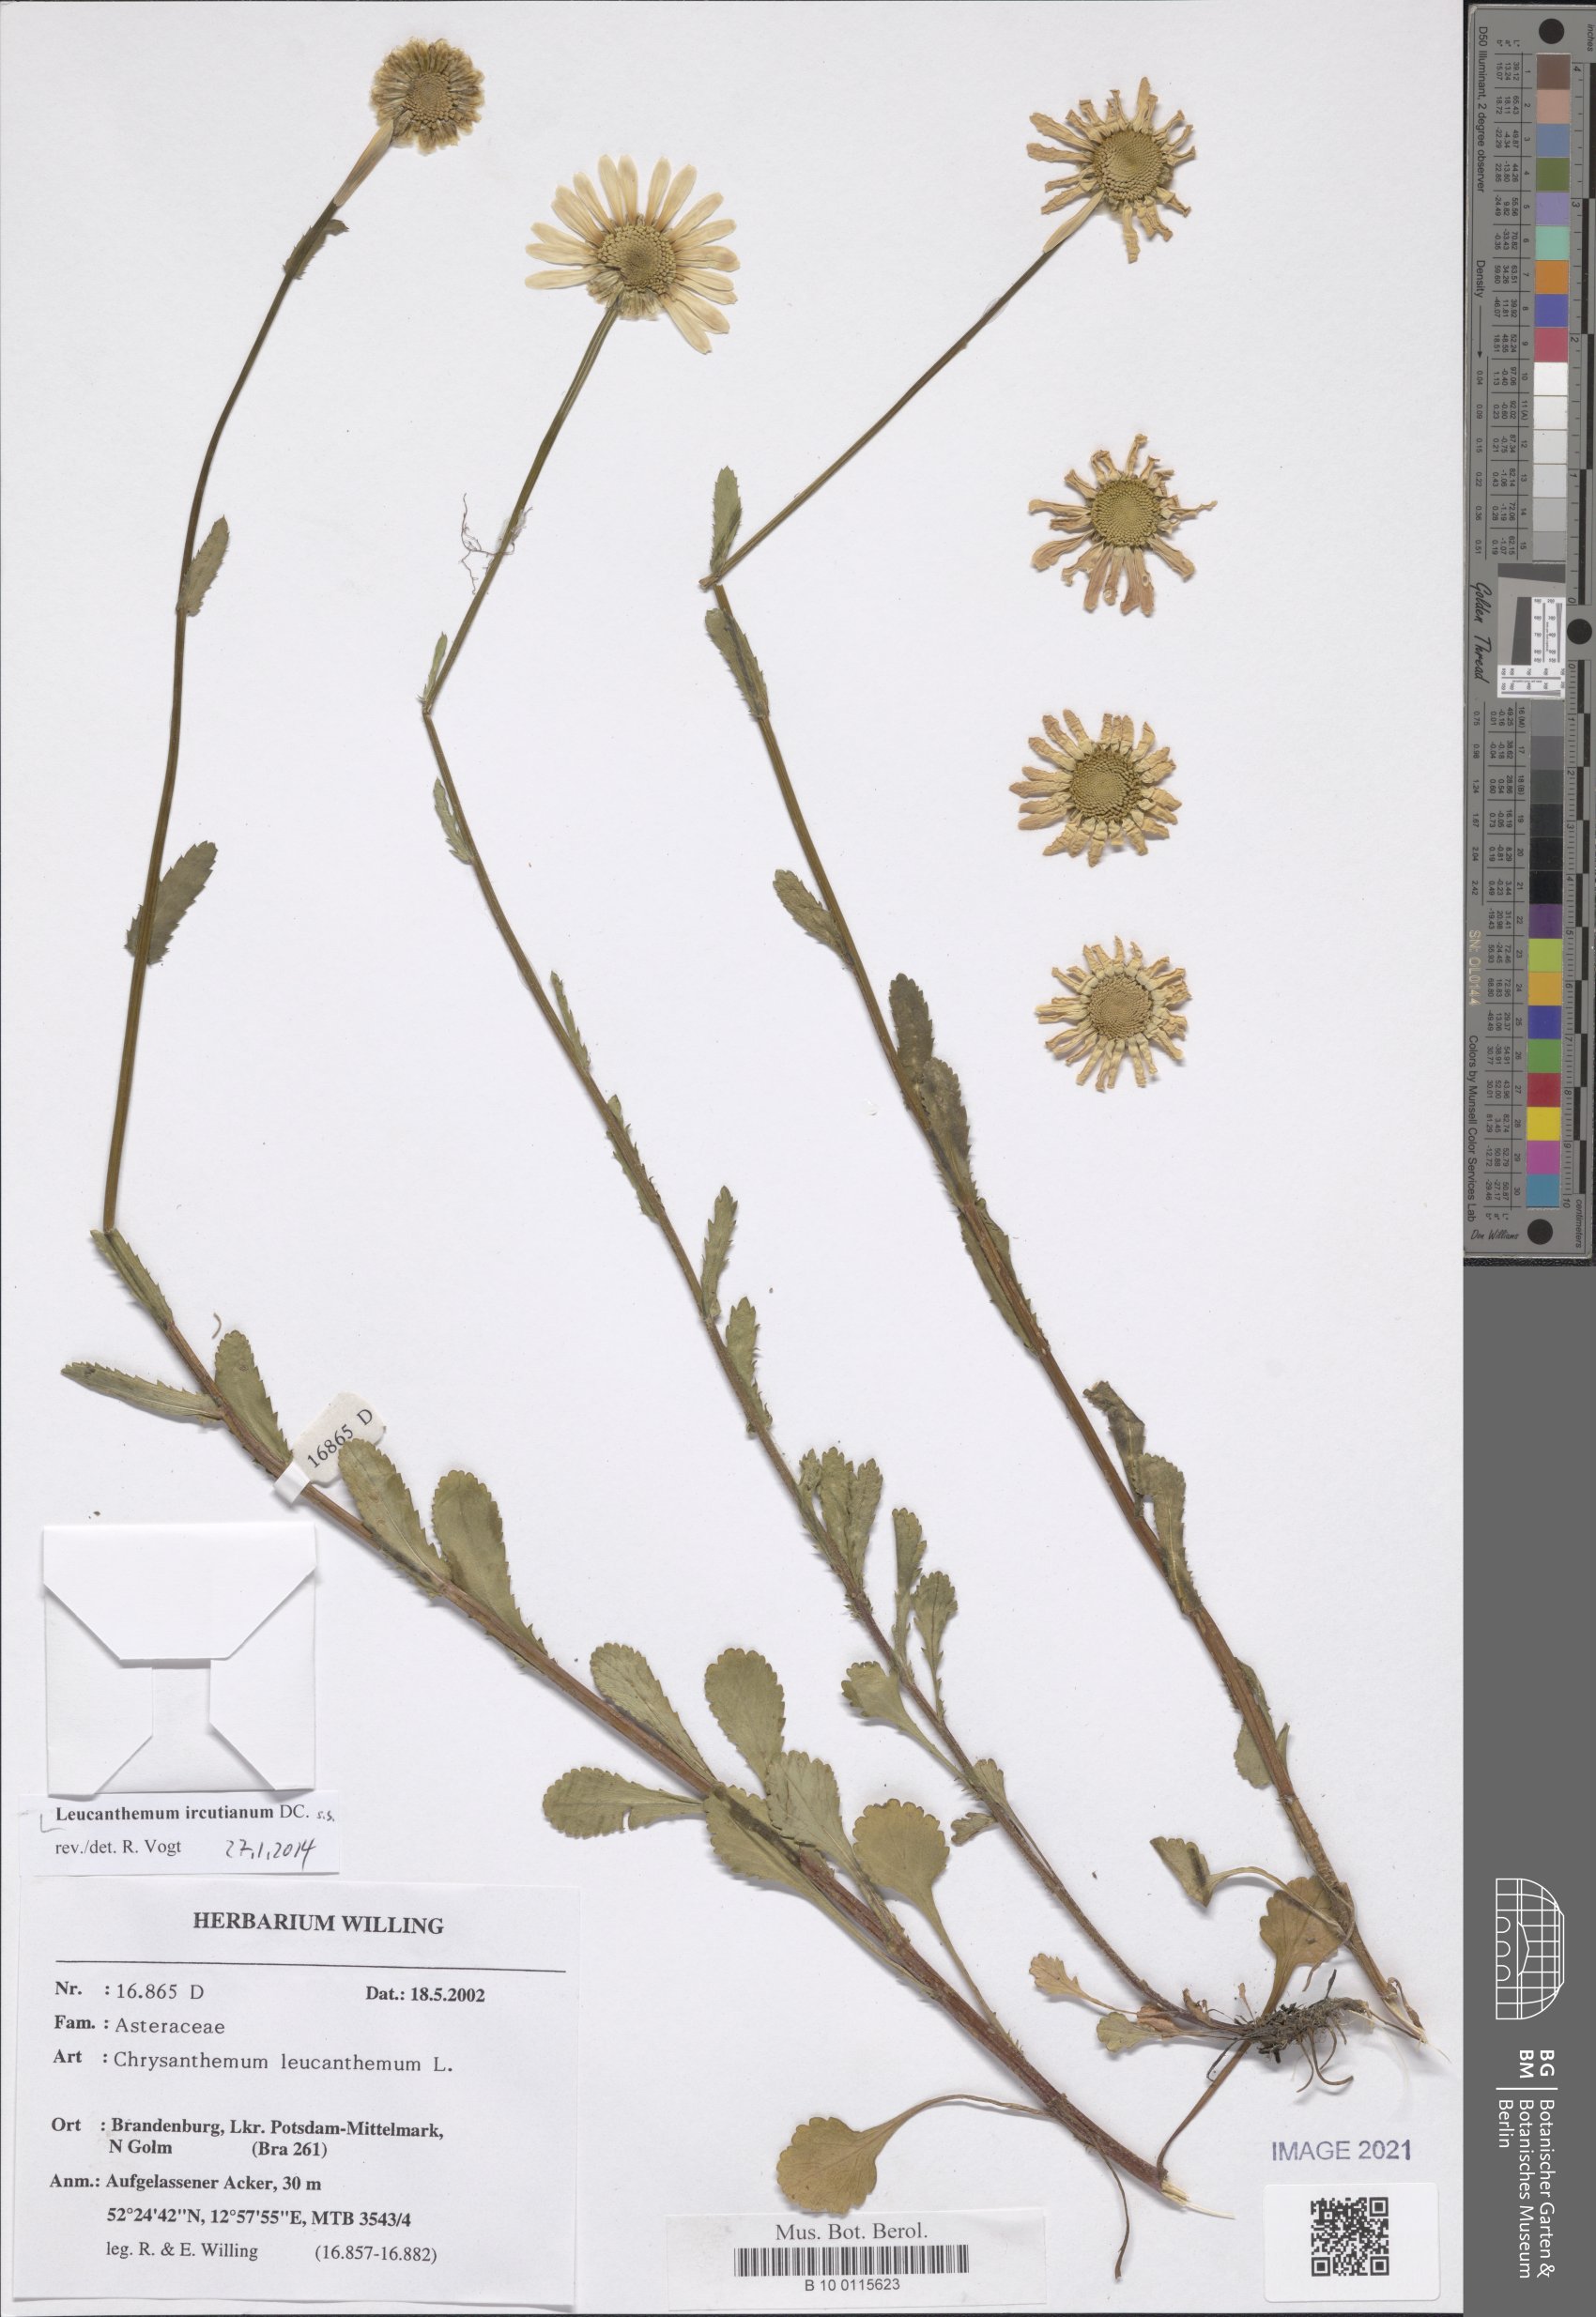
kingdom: Plantae
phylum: Tracheophyta
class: Magnoliopsida
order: Asterales
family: Asteraceae
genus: Leucanthemum
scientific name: Leucanthemum ircutianum
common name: Daisy
